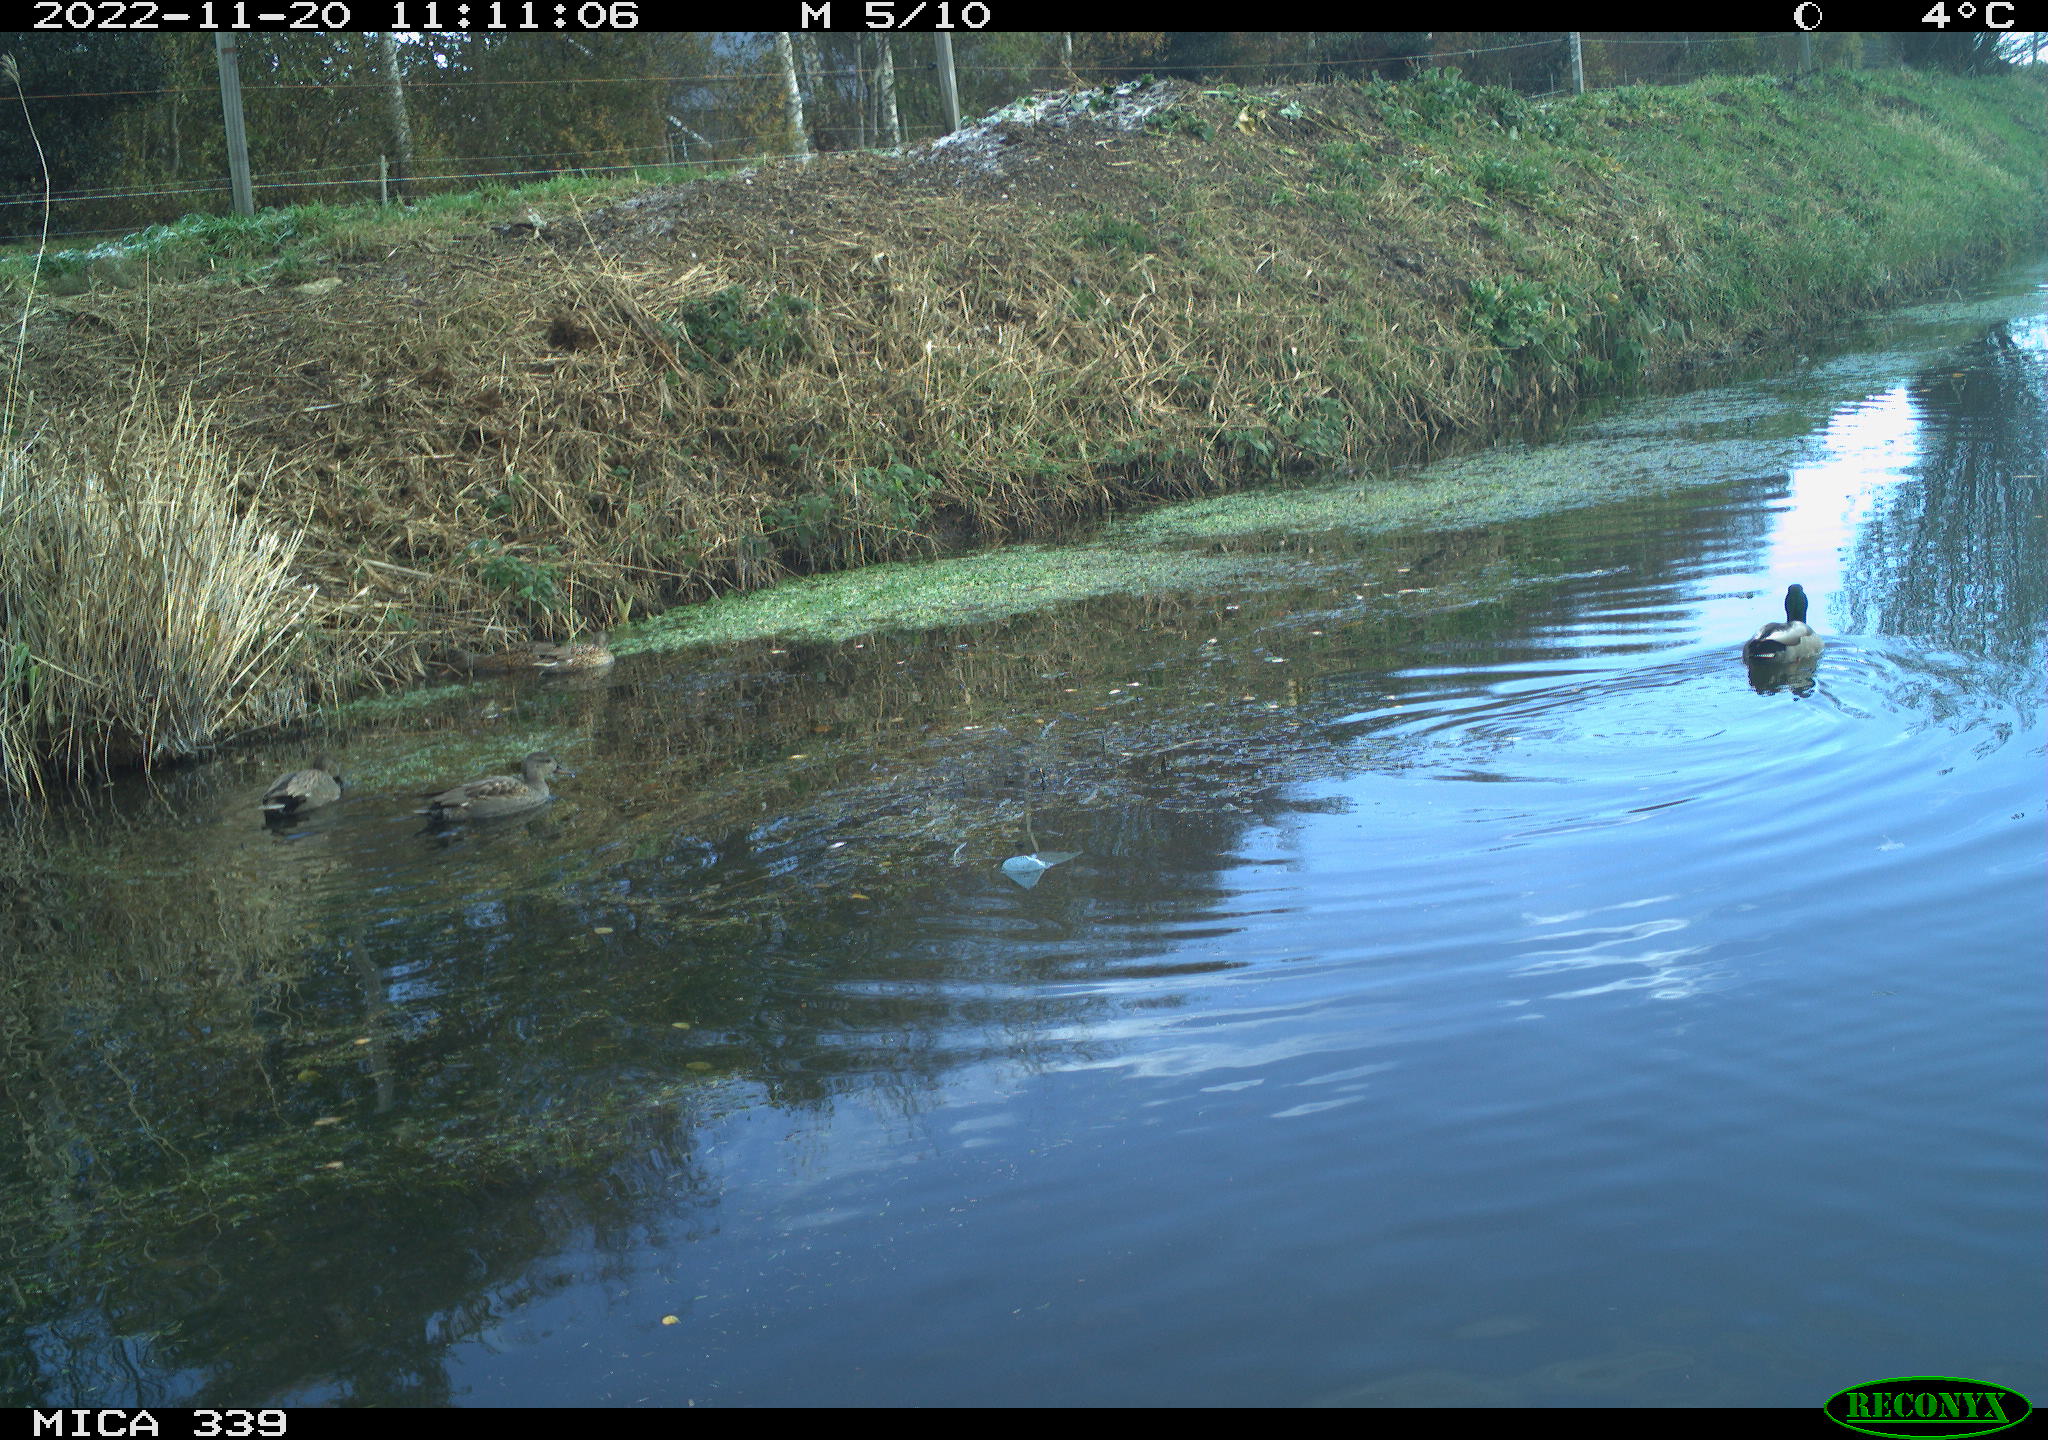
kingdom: Animalia
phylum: Chordata
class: Aves
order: Anseriformes
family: Anatidae
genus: Mareca
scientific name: Mareca strepera
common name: Gadwall
